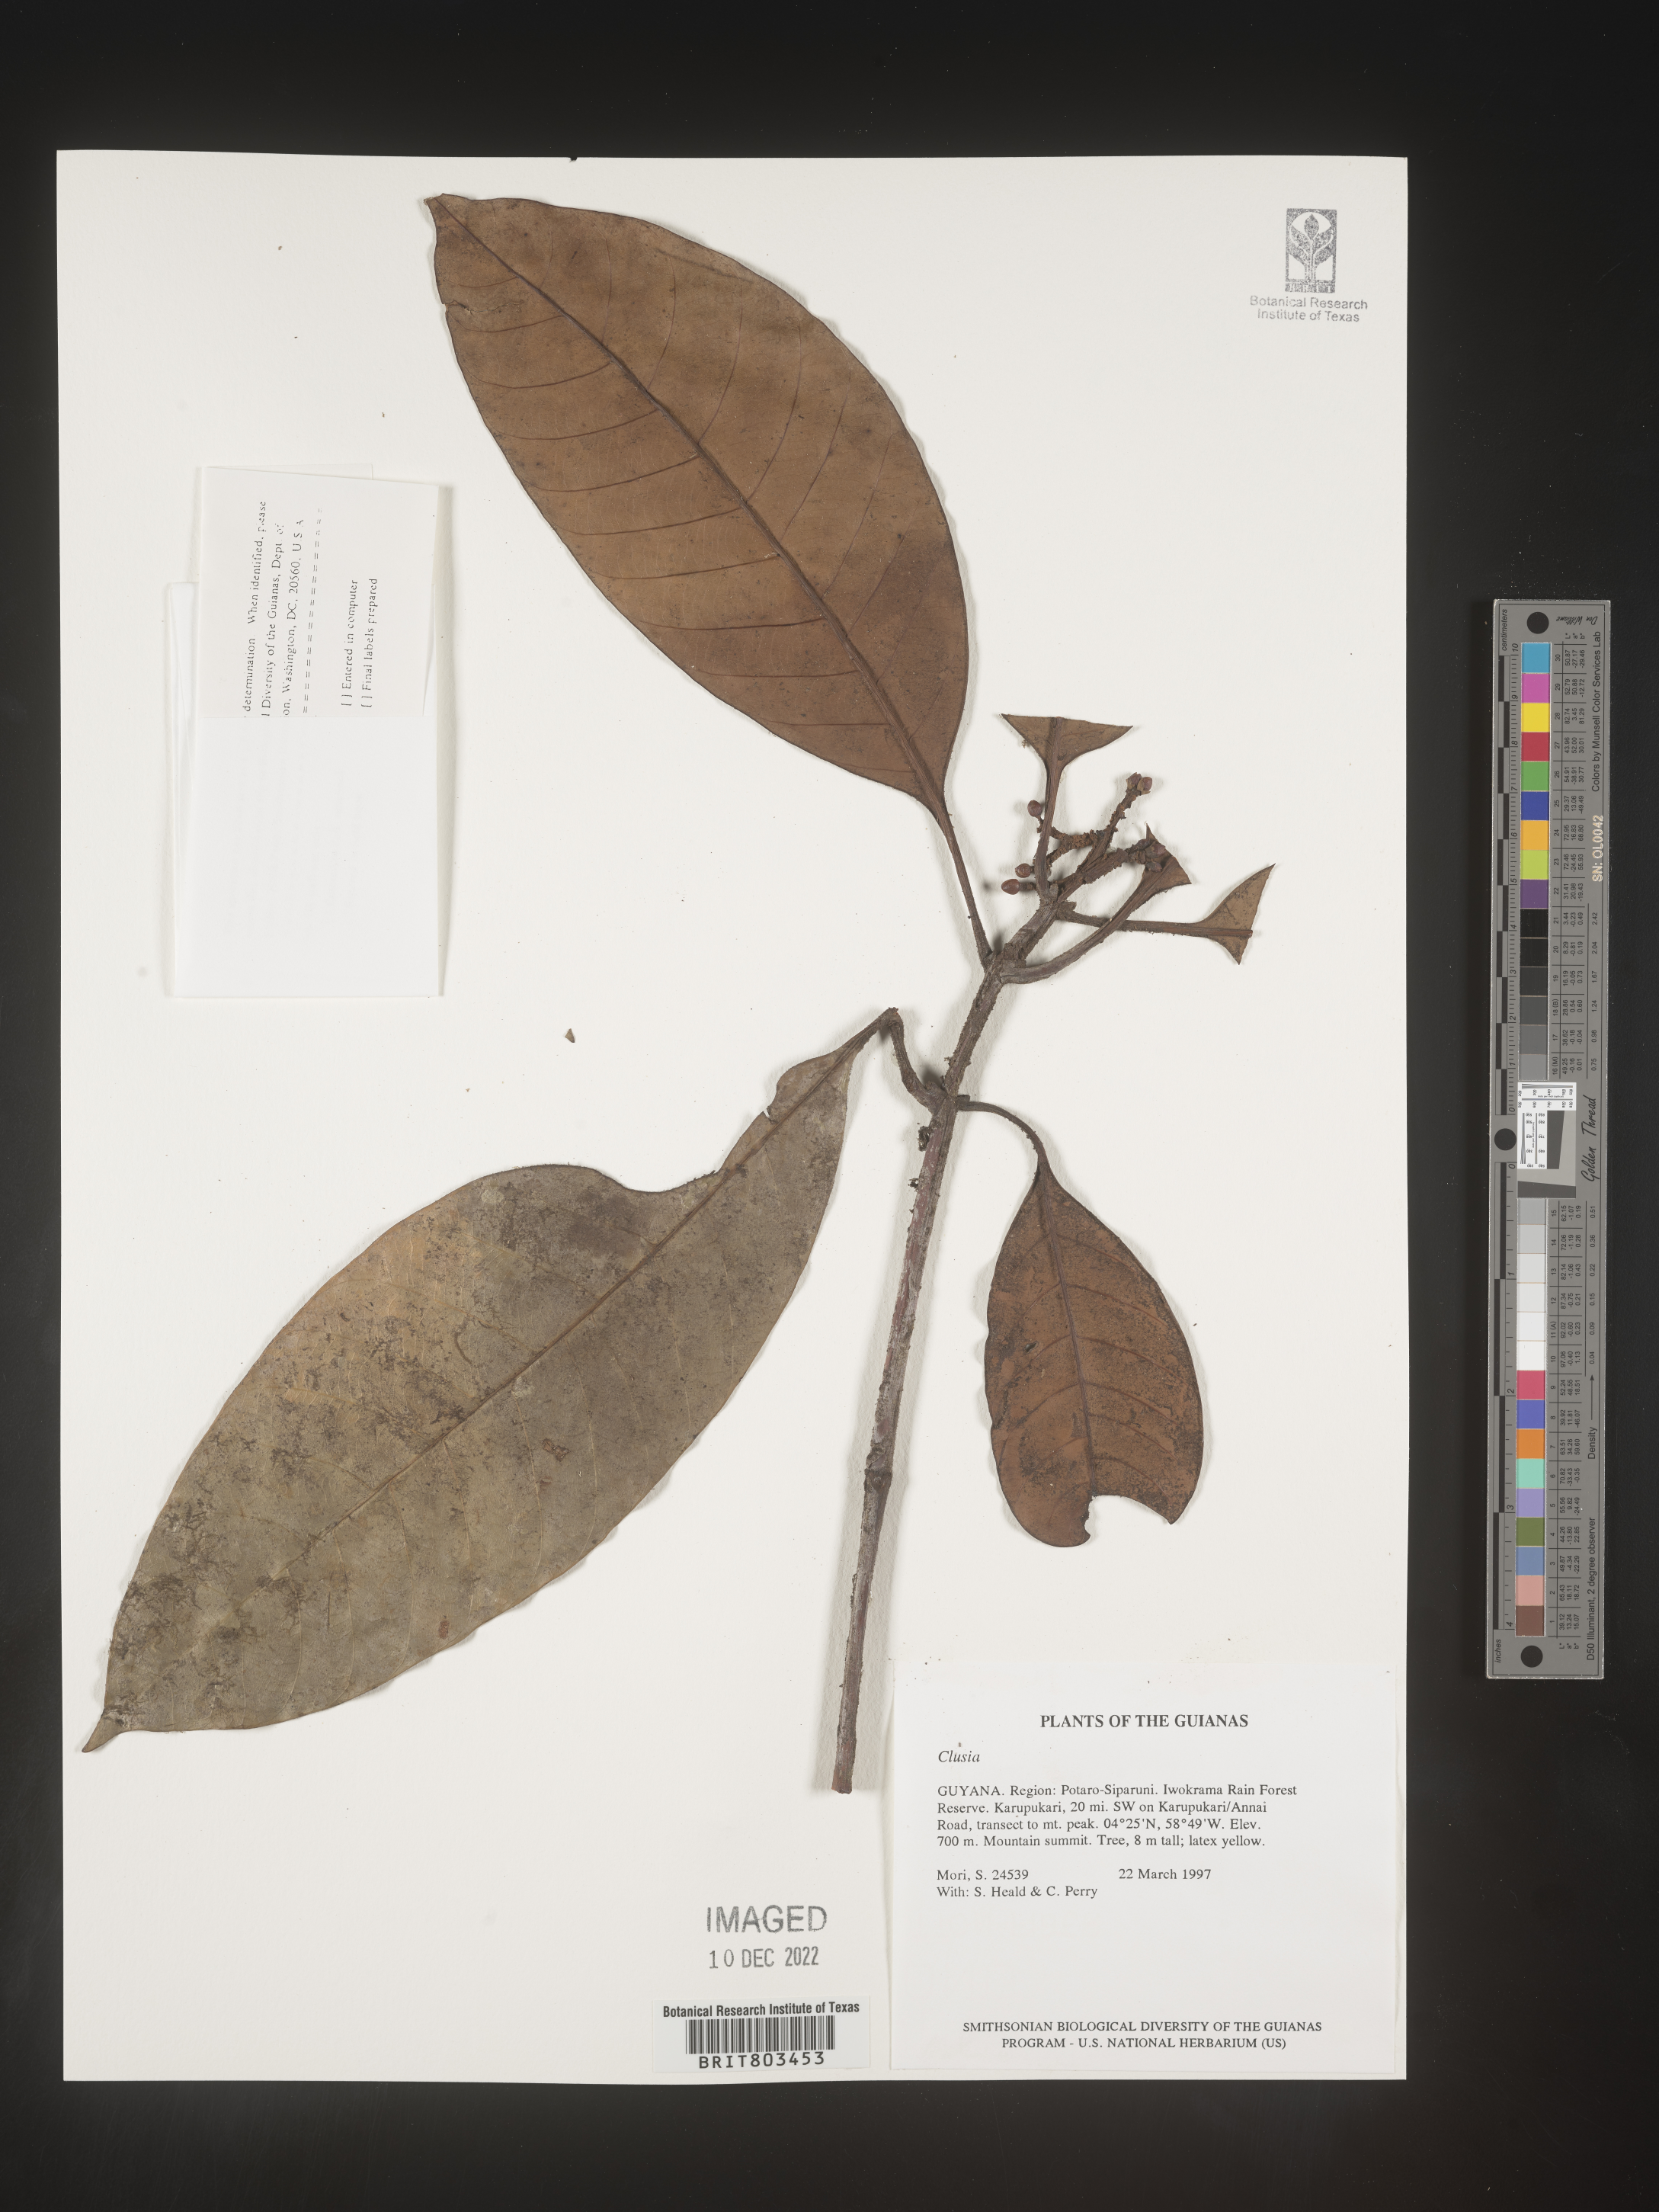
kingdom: Plantae
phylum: Tracheophyta
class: Magnoliopsida
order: Malpighiales
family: Clusiaceae
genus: Tovomita
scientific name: Tovomita
